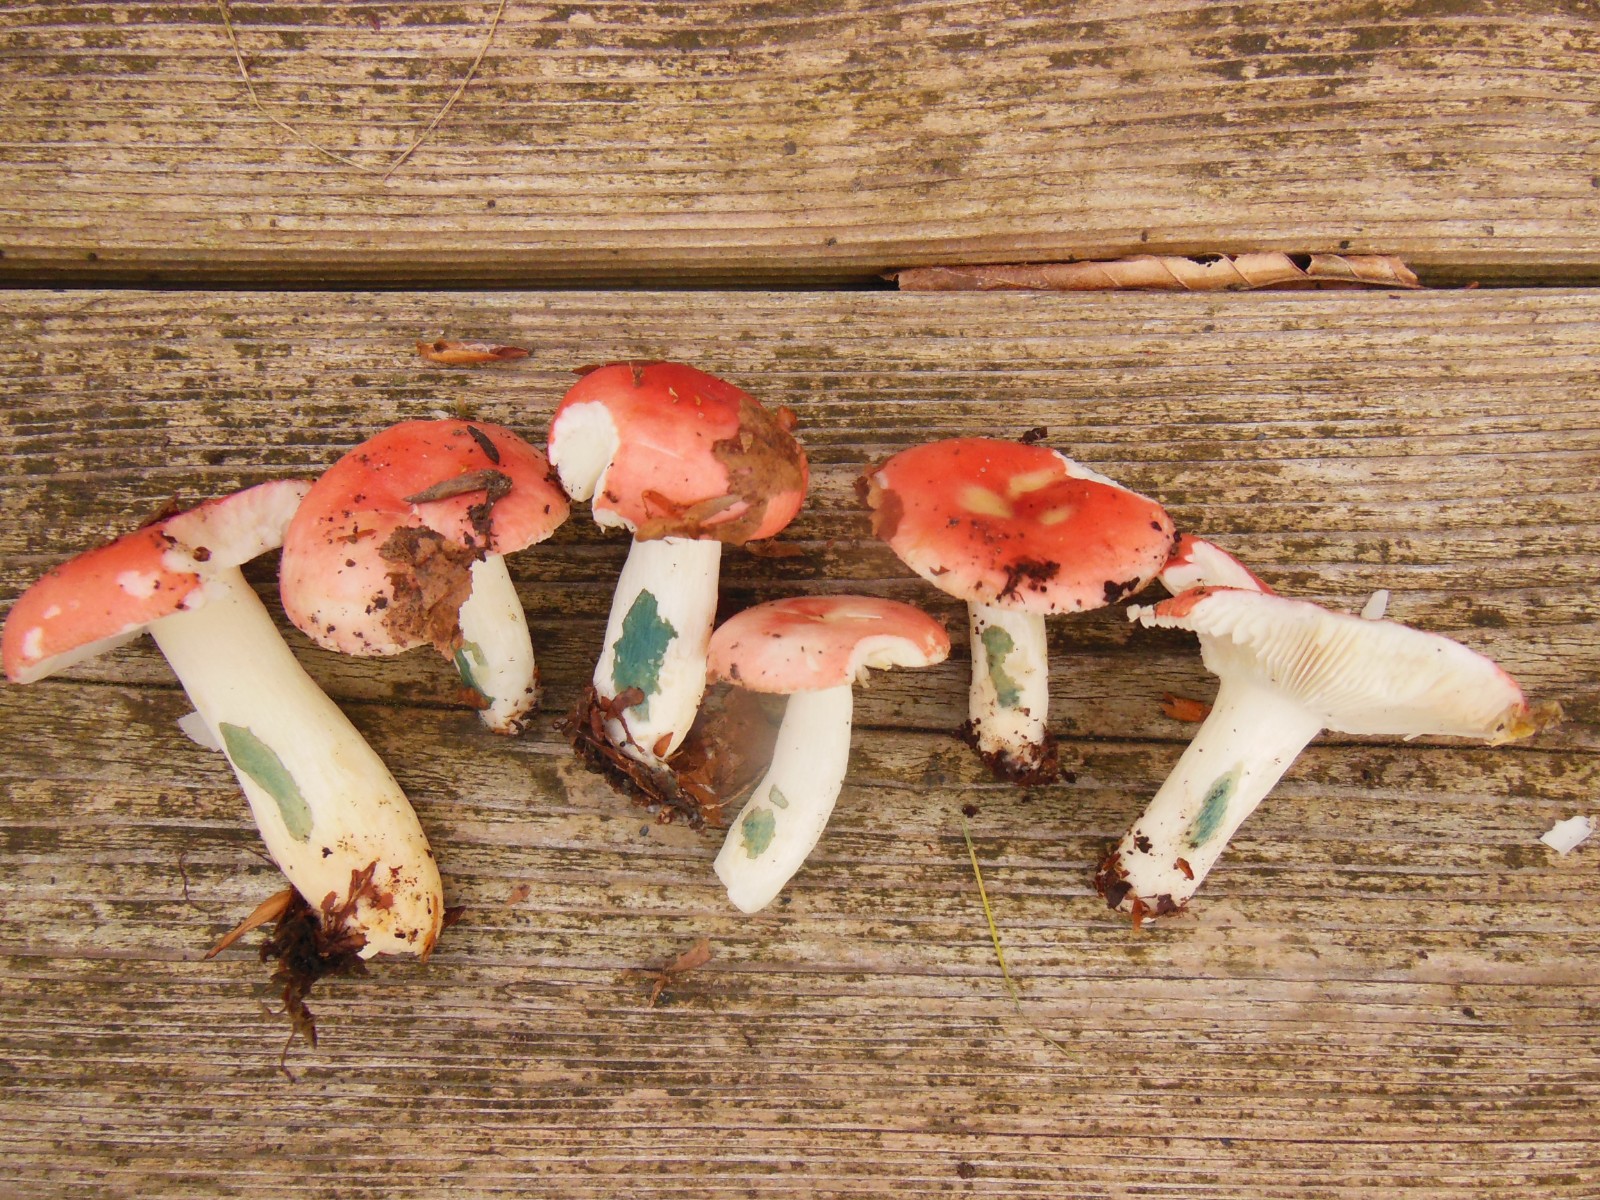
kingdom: Fungi
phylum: Basidiomycota
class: Agaricomycetes
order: Russulales
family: Russulaceae
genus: Russula
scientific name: Russula nobilis
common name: lille gift-skørhat
